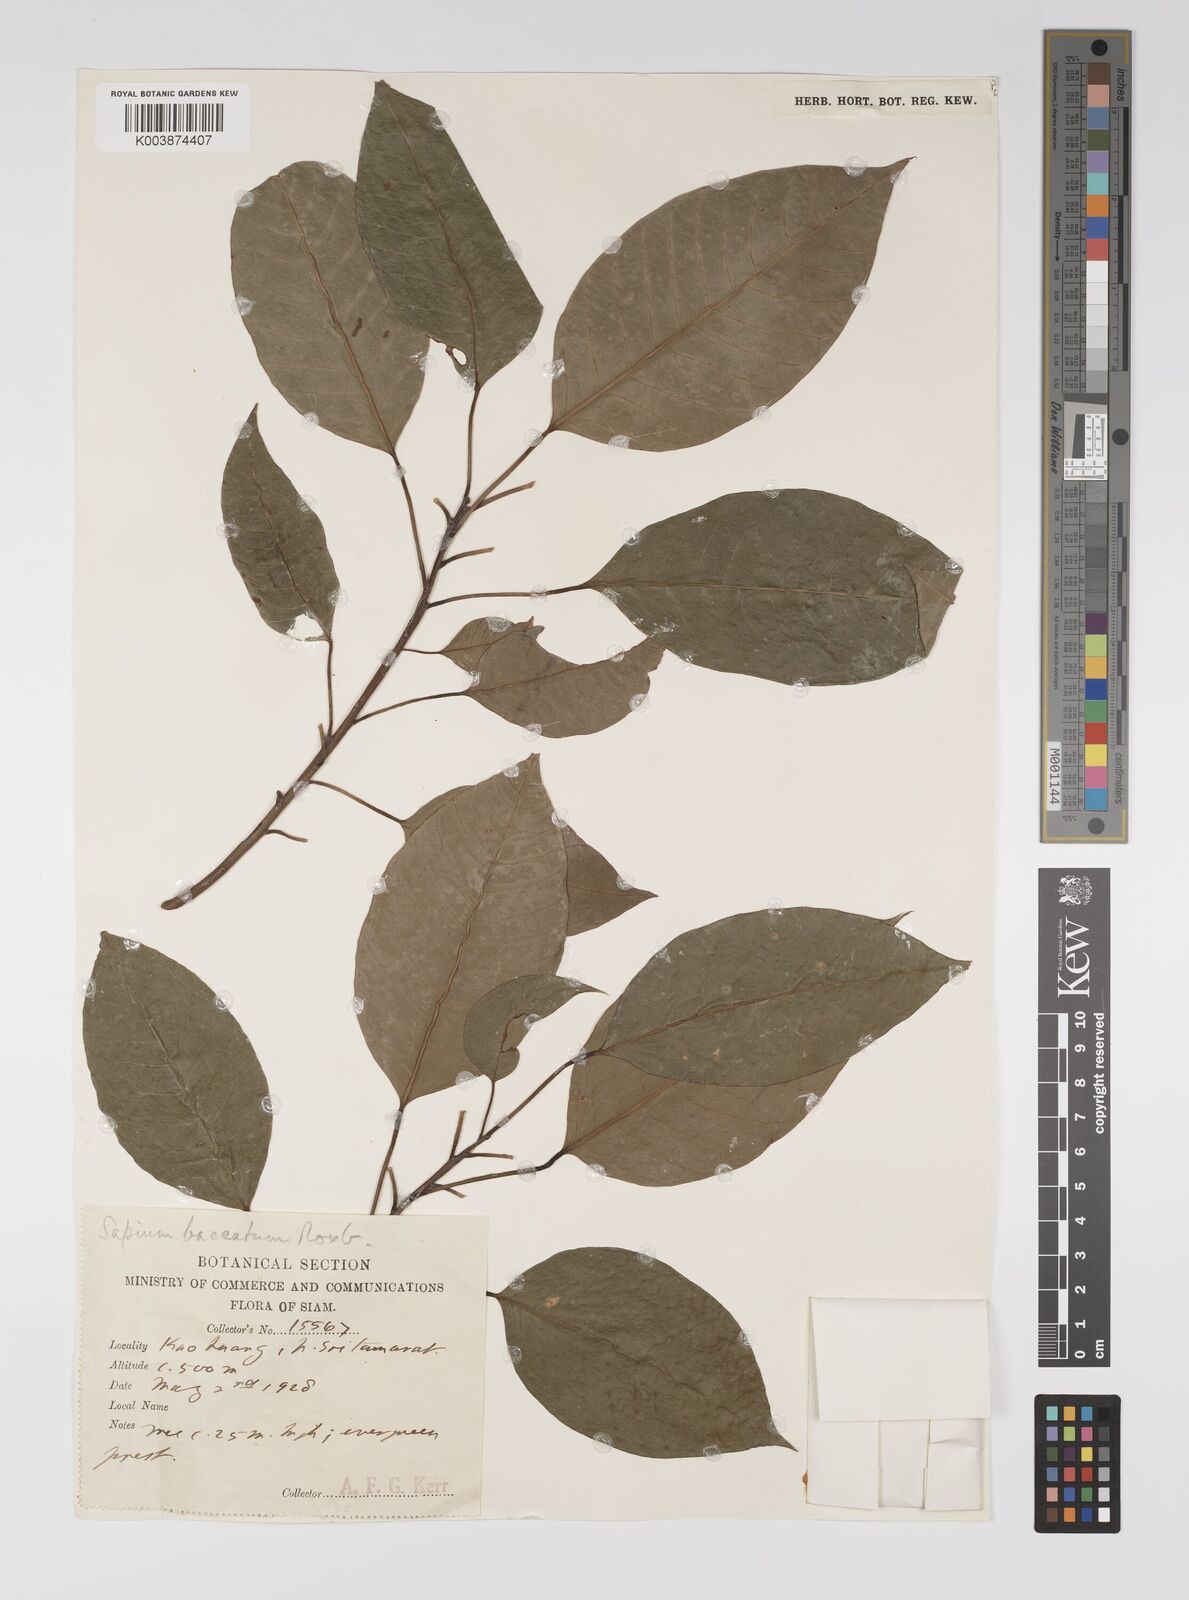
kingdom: Plantae
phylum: Tracheophyta
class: Magnoliopsida
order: Malpighiales
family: Euphorbiaceae
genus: Balakata
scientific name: Balakata baccata
